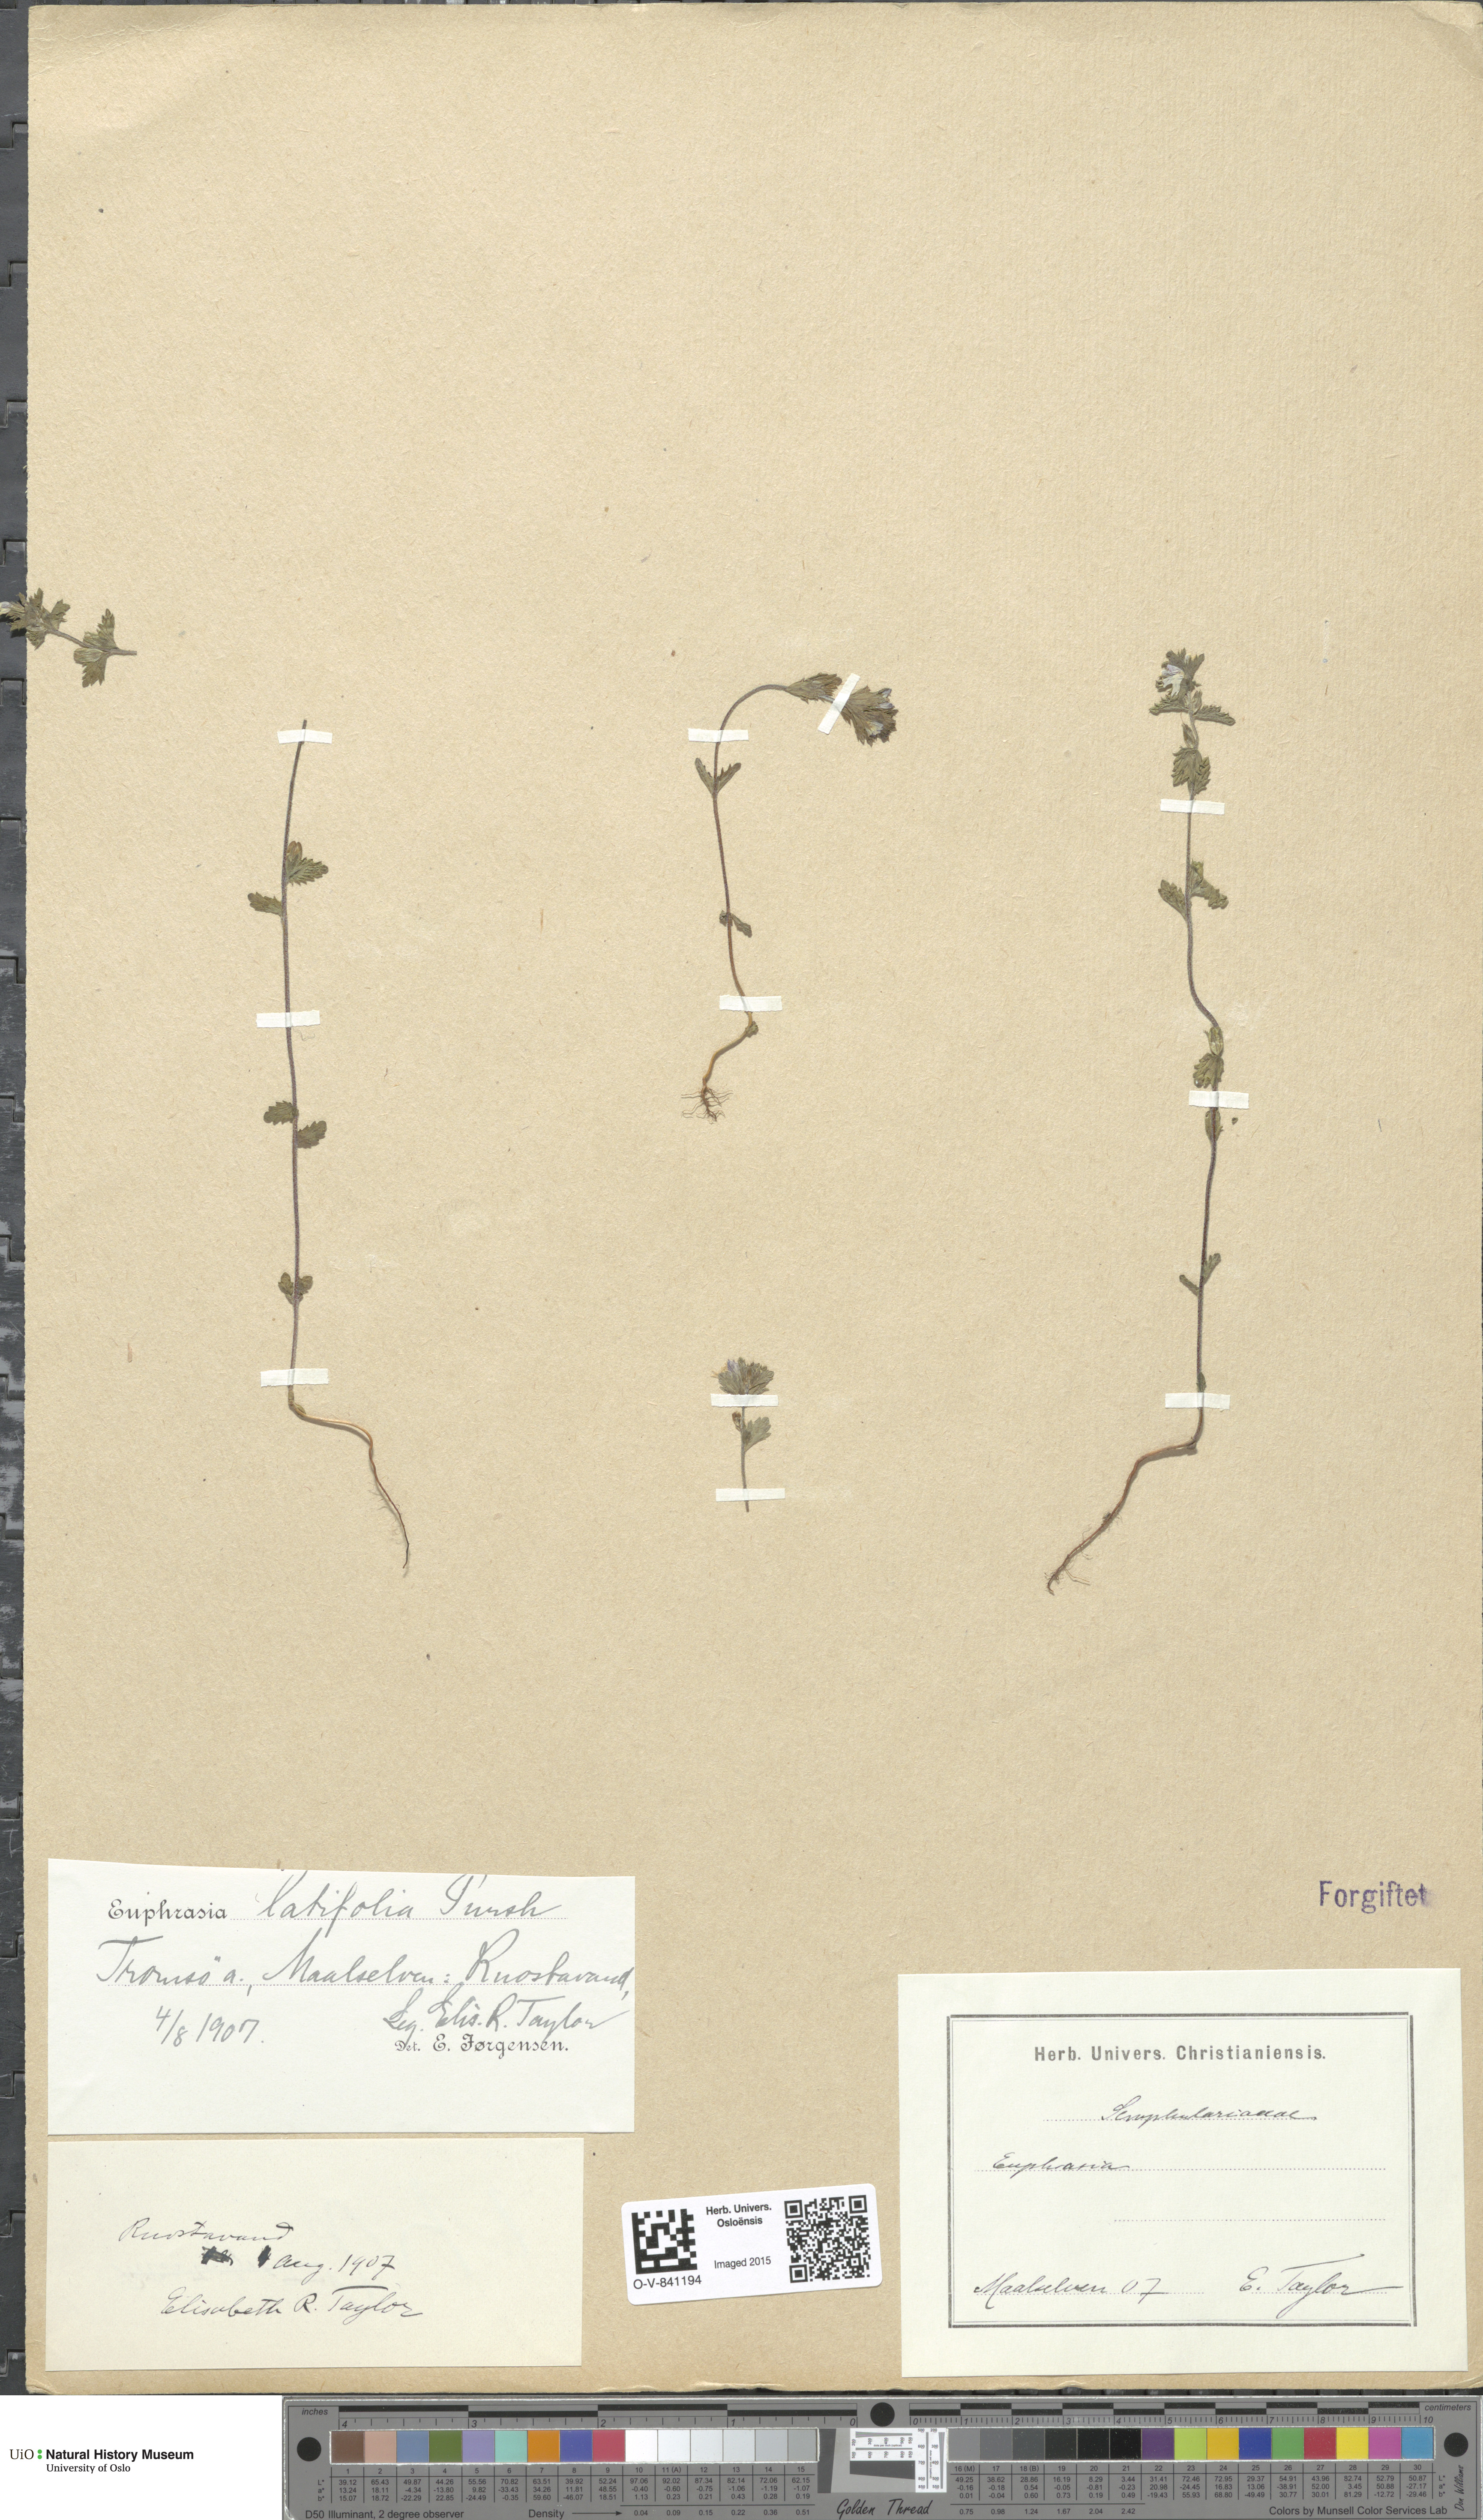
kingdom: Plantae
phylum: Tracheophyta
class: Magnoliopsida
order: Lamiales
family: Orobanchaceae
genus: Euphrasia
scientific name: Euphrasia wettsteinii
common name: Wettstein's eyebright
